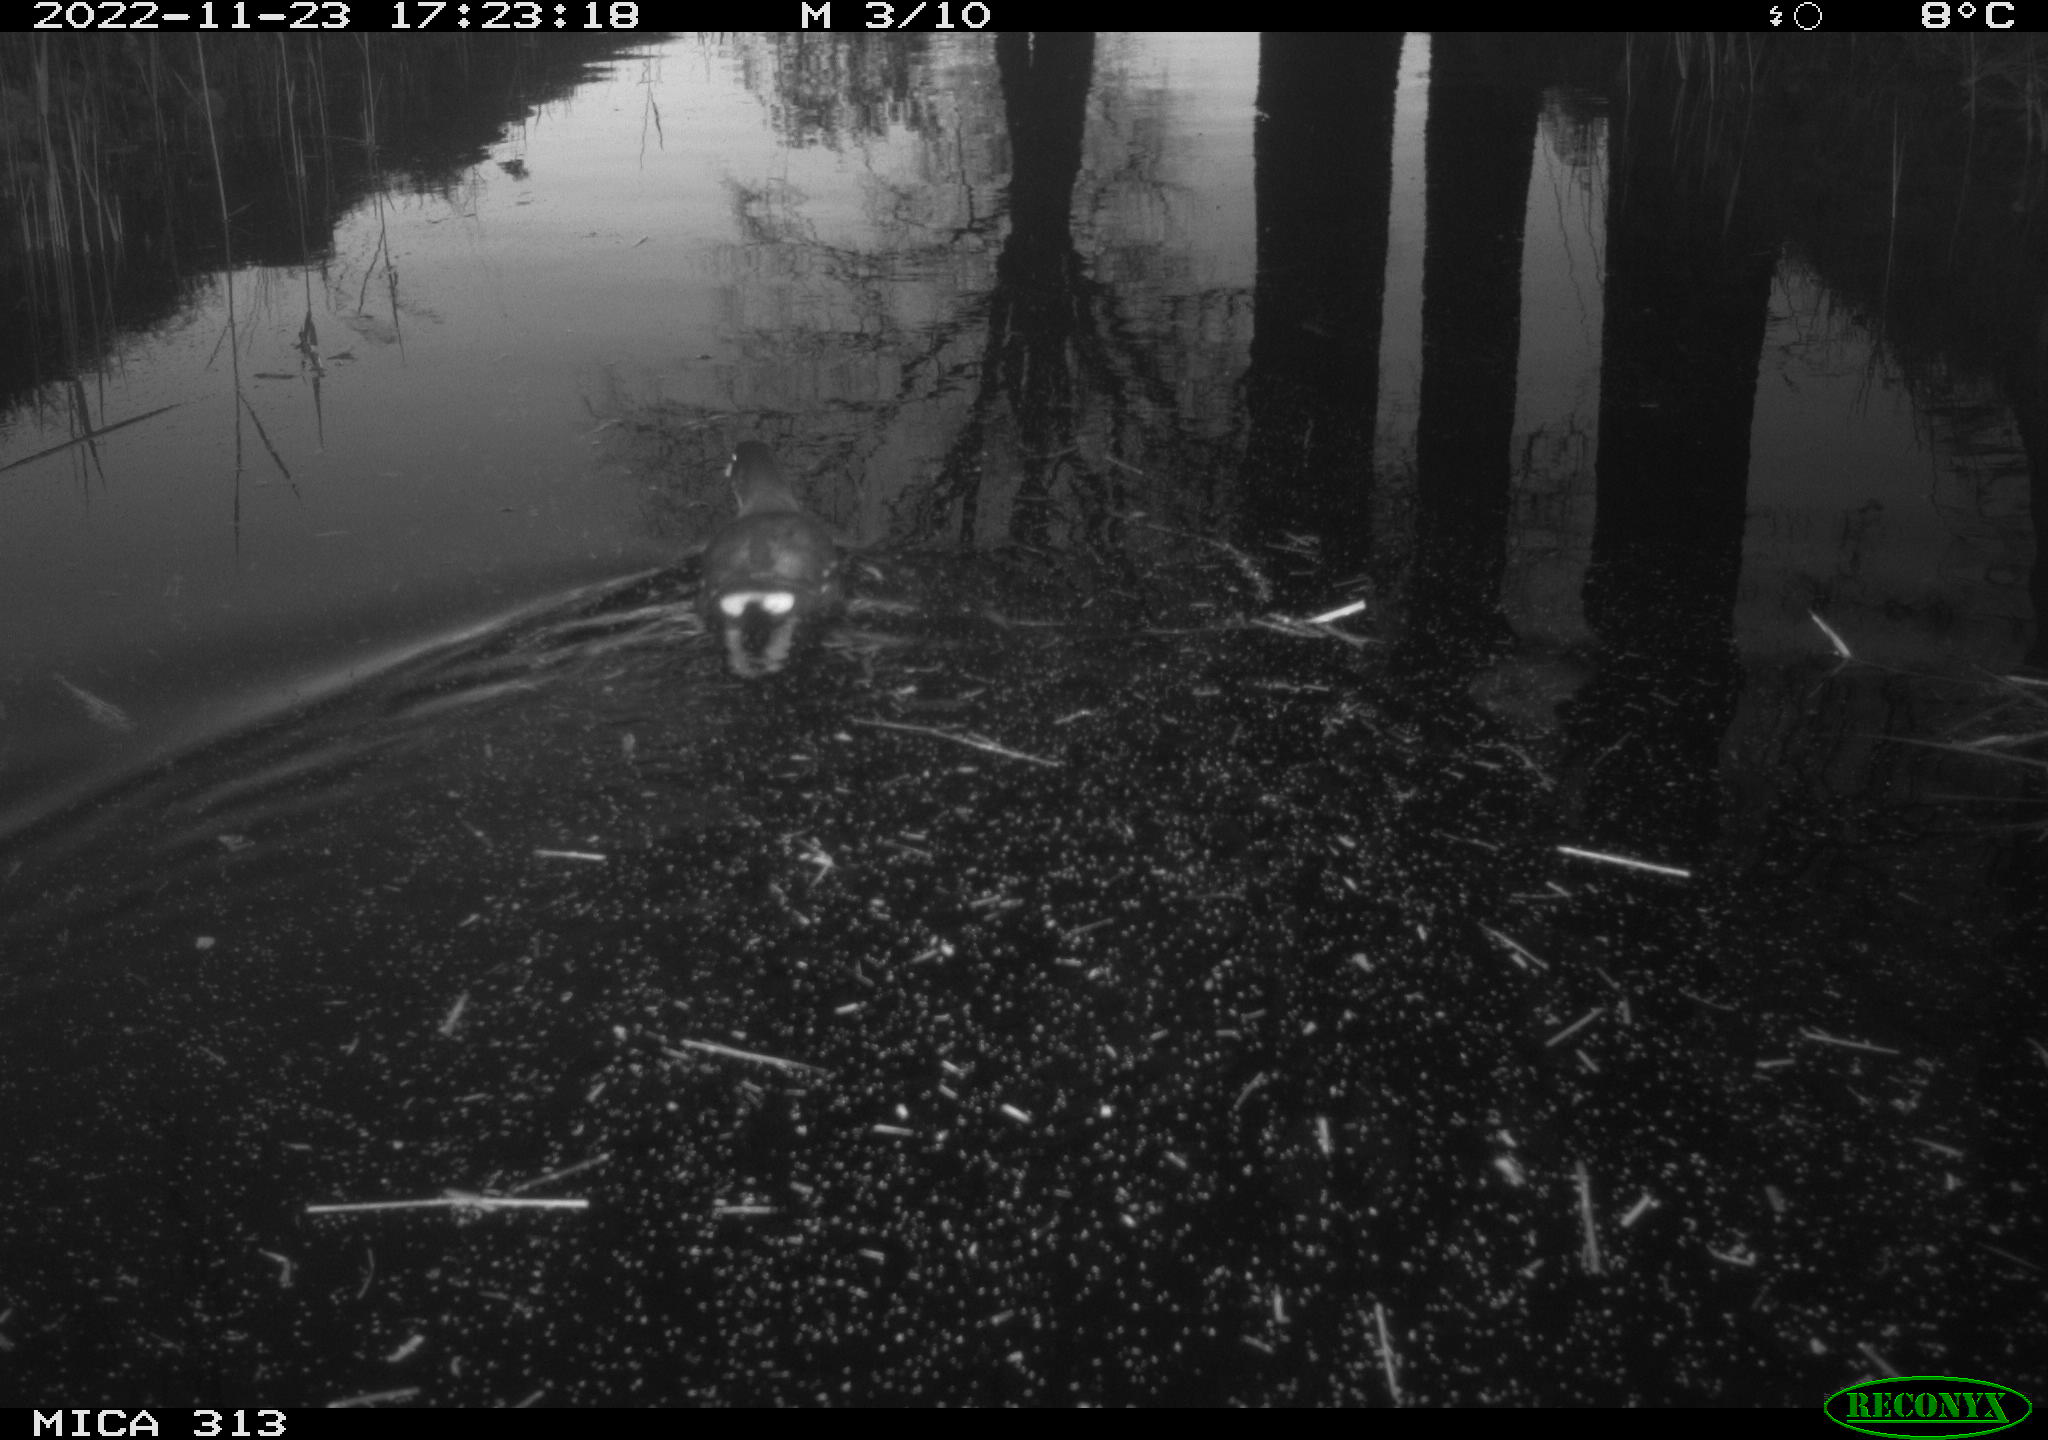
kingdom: Animalia
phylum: Chordata
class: Aves
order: Gruiformes
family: Rallidae
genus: Gallinula
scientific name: Gallinula chloropus
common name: Common moorhen
